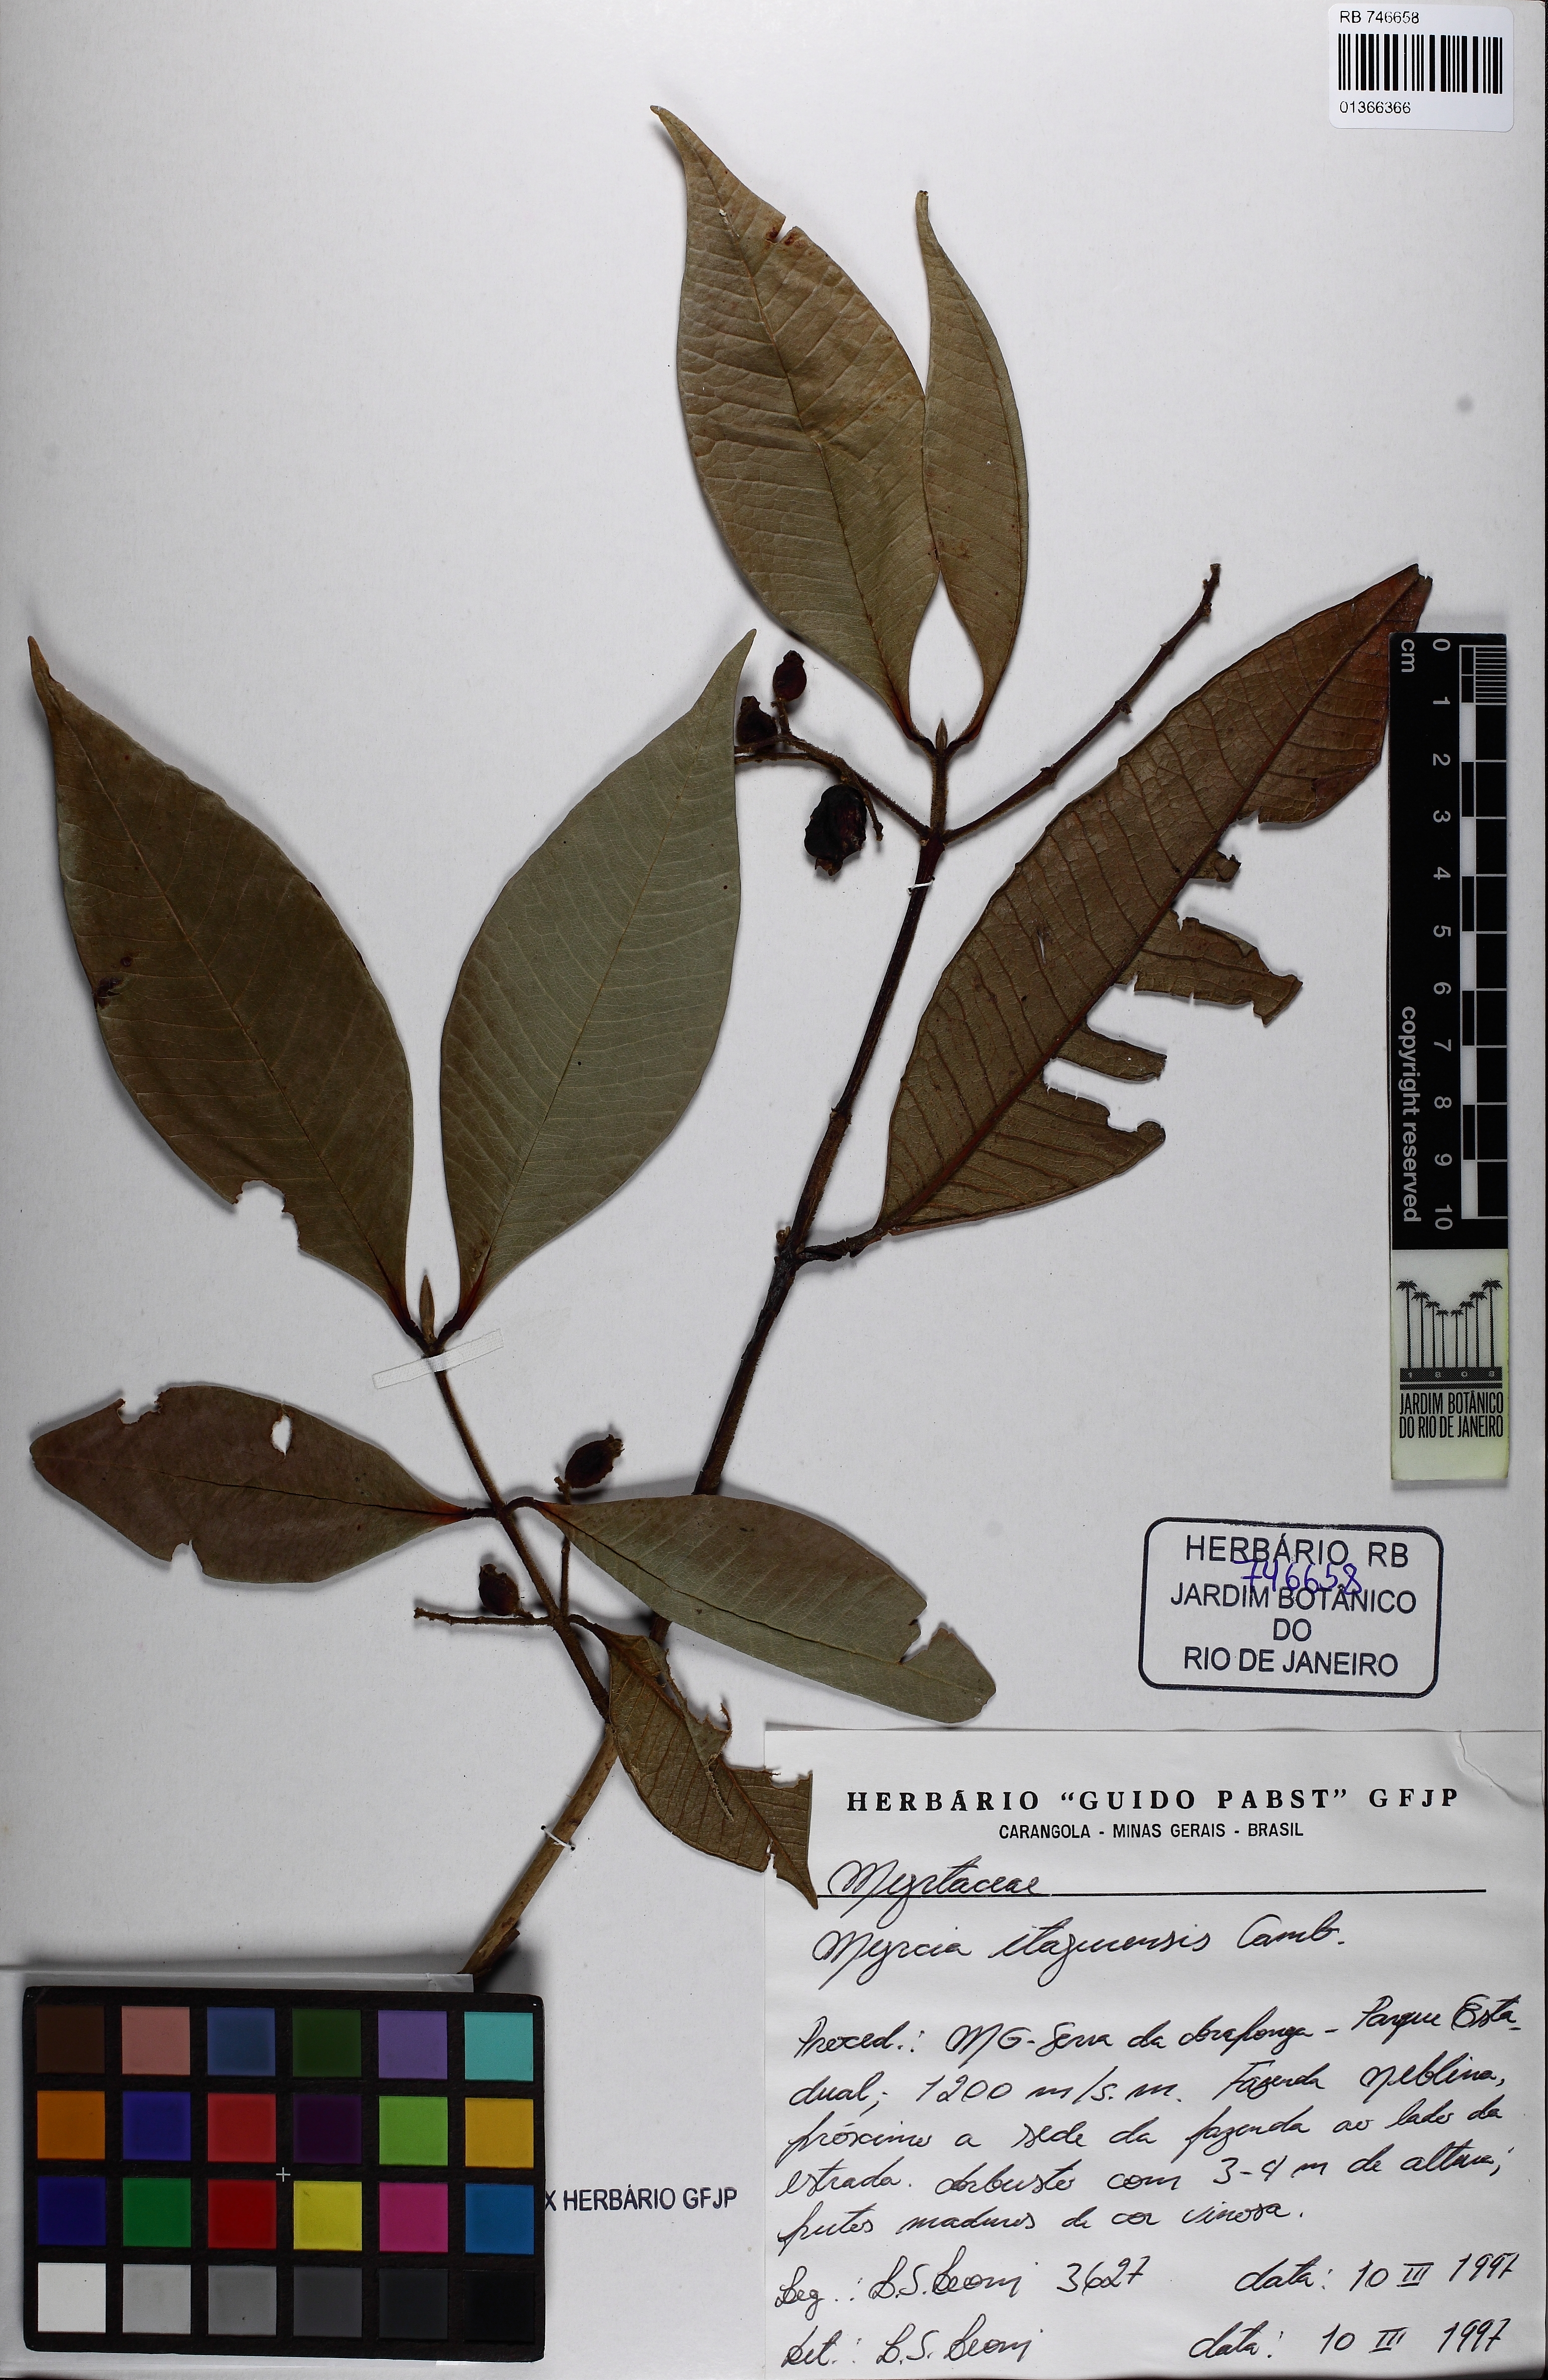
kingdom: Plantae
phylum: Tracheophyta
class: Magnoliopsida
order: Myrtales
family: Myrtaceae
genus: Myrcia
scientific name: Myrcia hebepetala
